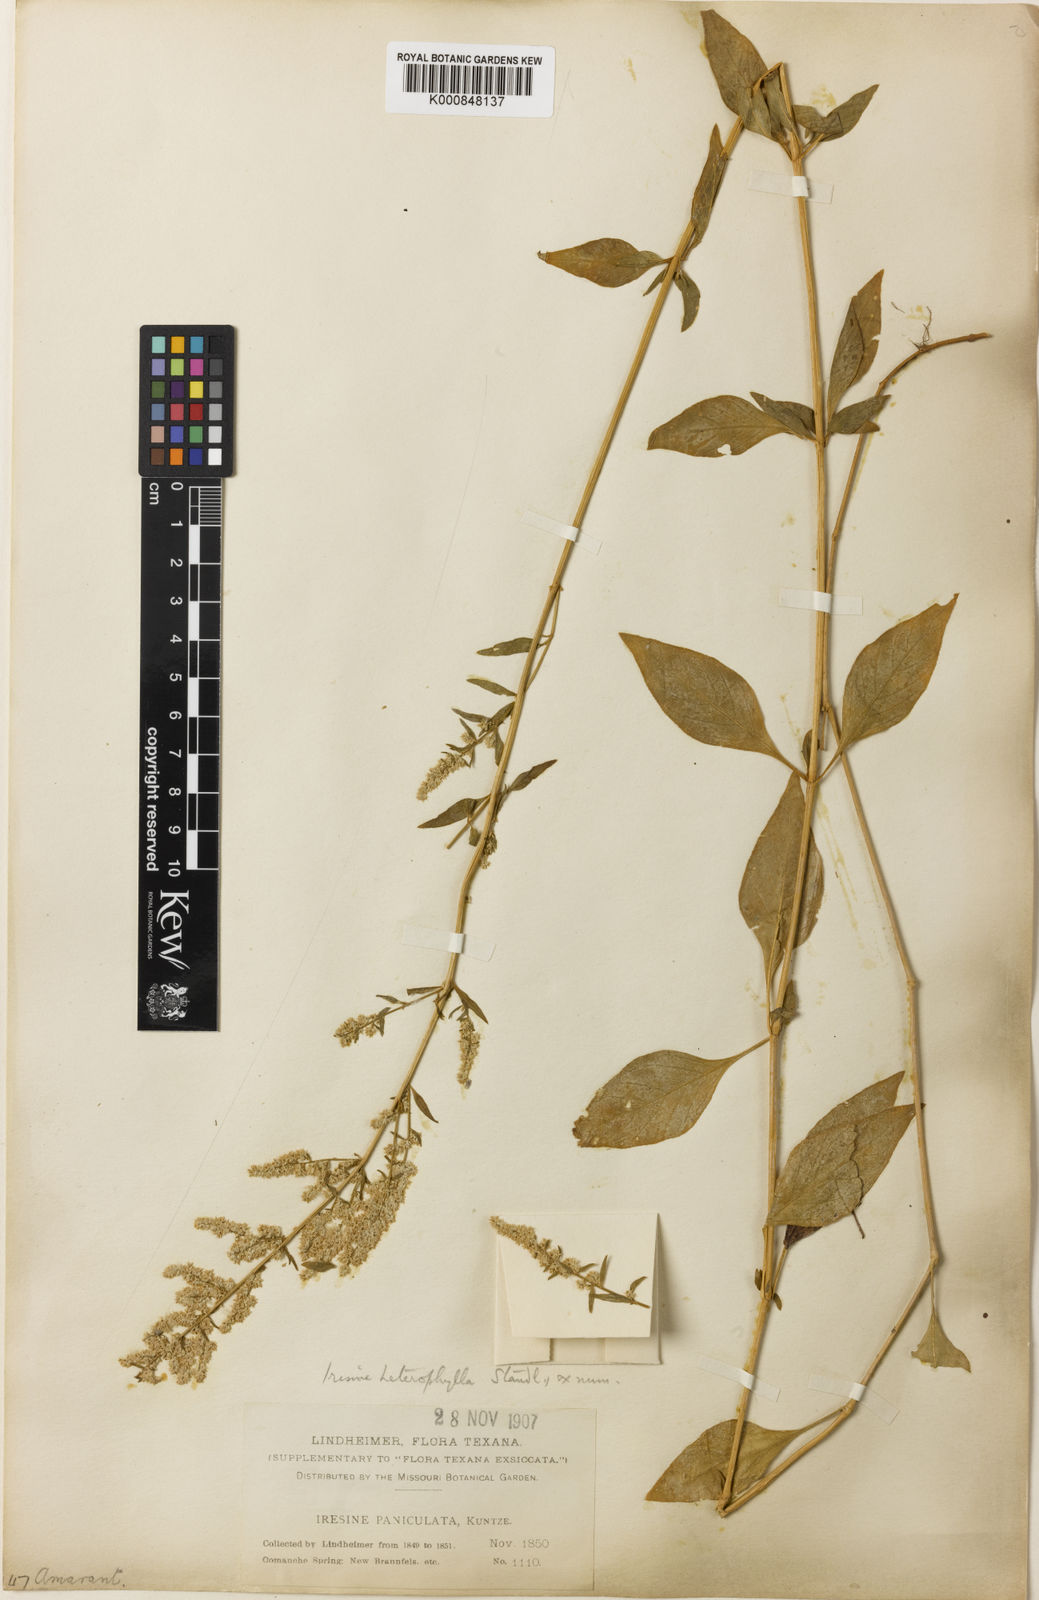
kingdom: Plantae
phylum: Tracheophyta
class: Magnoliopsida
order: Caryophyllales
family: Amaranthaceae
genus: Iresine
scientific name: Iresine heterophylla
